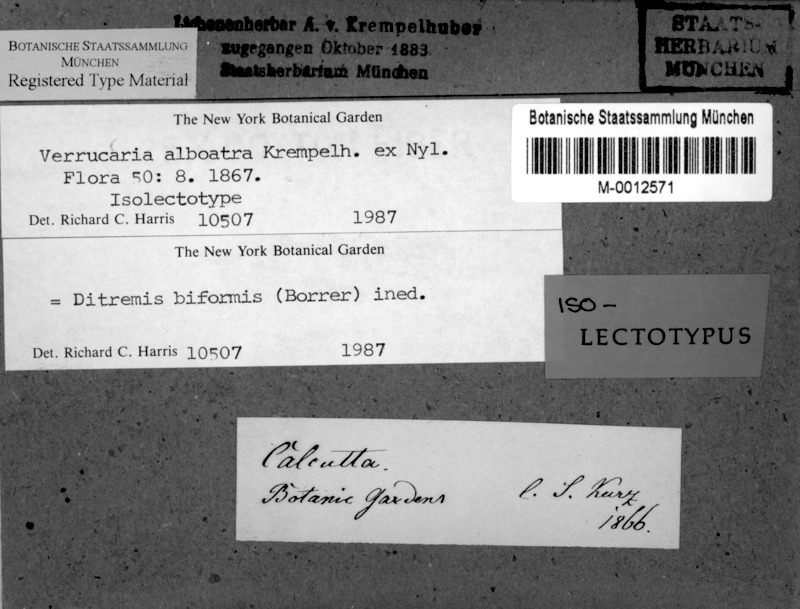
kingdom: Fungi
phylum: Ascomycota
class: Dothideomycetes
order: Monoblastiales
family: Monoblastiaceae
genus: Anisomeridium
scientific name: Anisomeridium biforme
